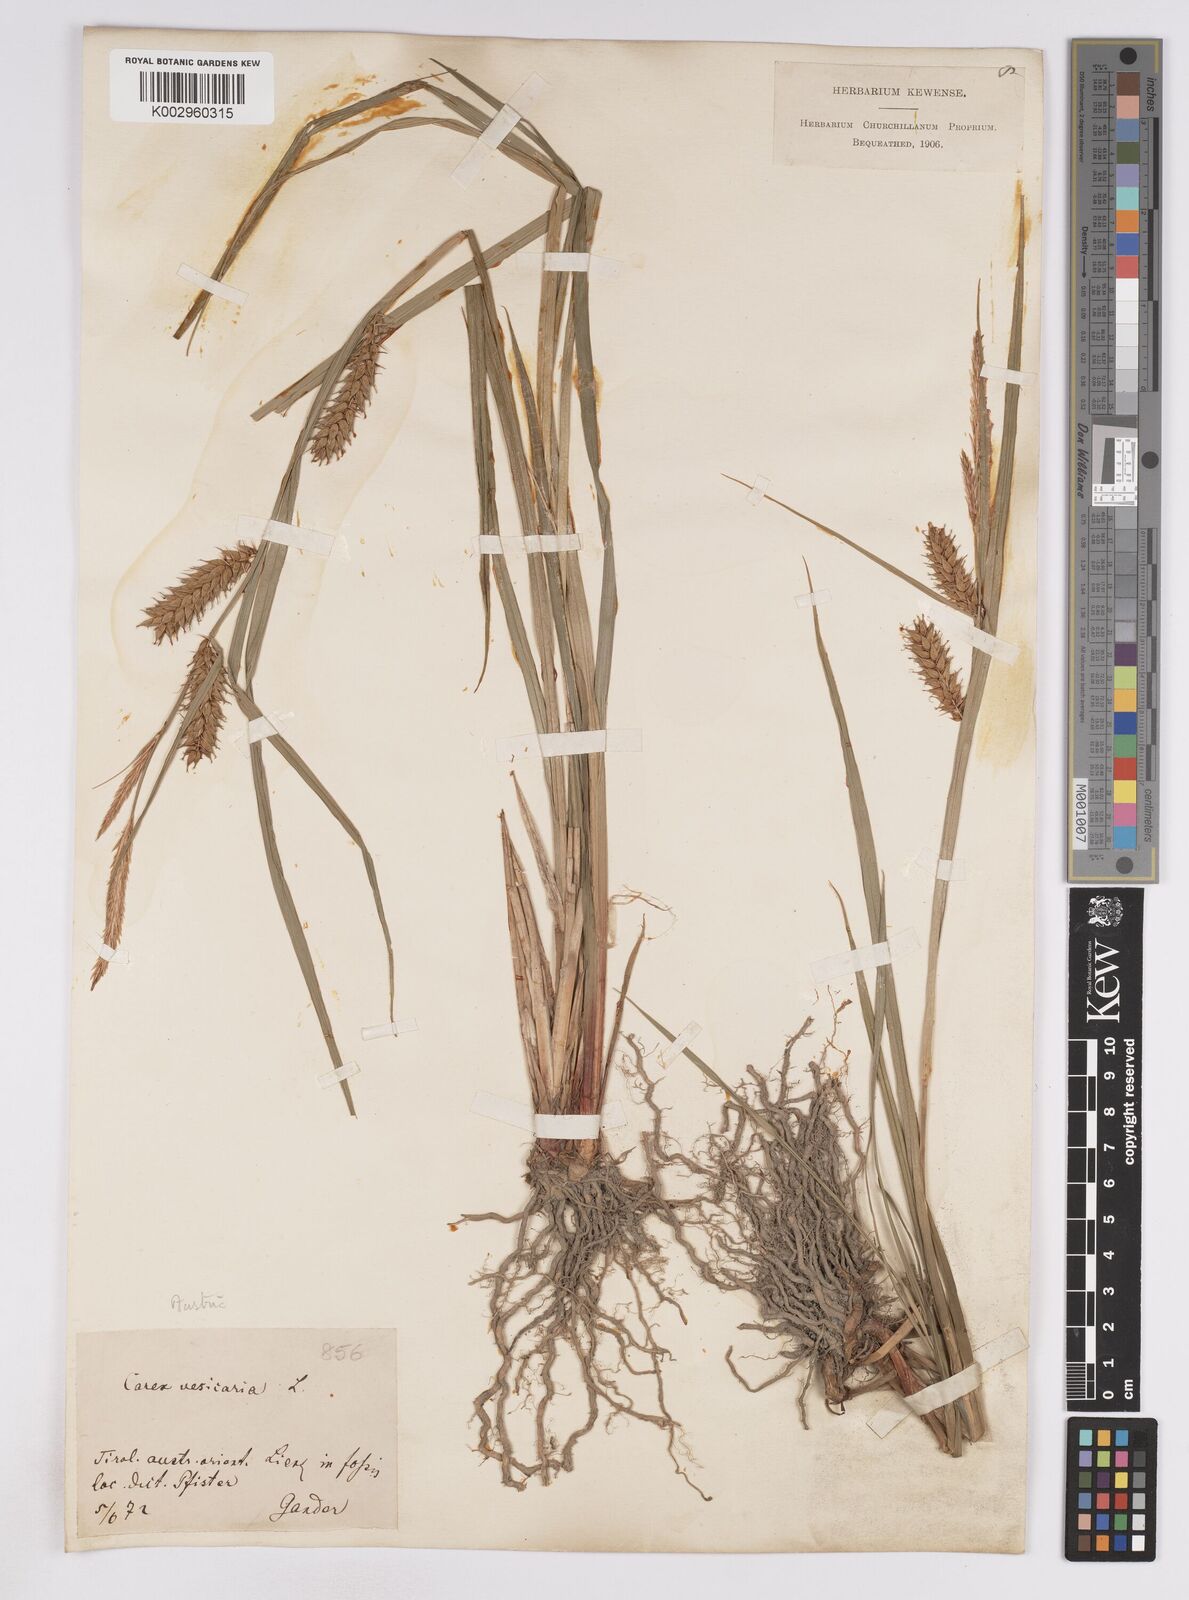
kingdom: Plantae
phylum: Tracheophyta
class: Liliopsida
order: Poales
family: Cyperaceae
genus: Carex
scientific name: Carex vesicaria
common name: Bladder-sedge
